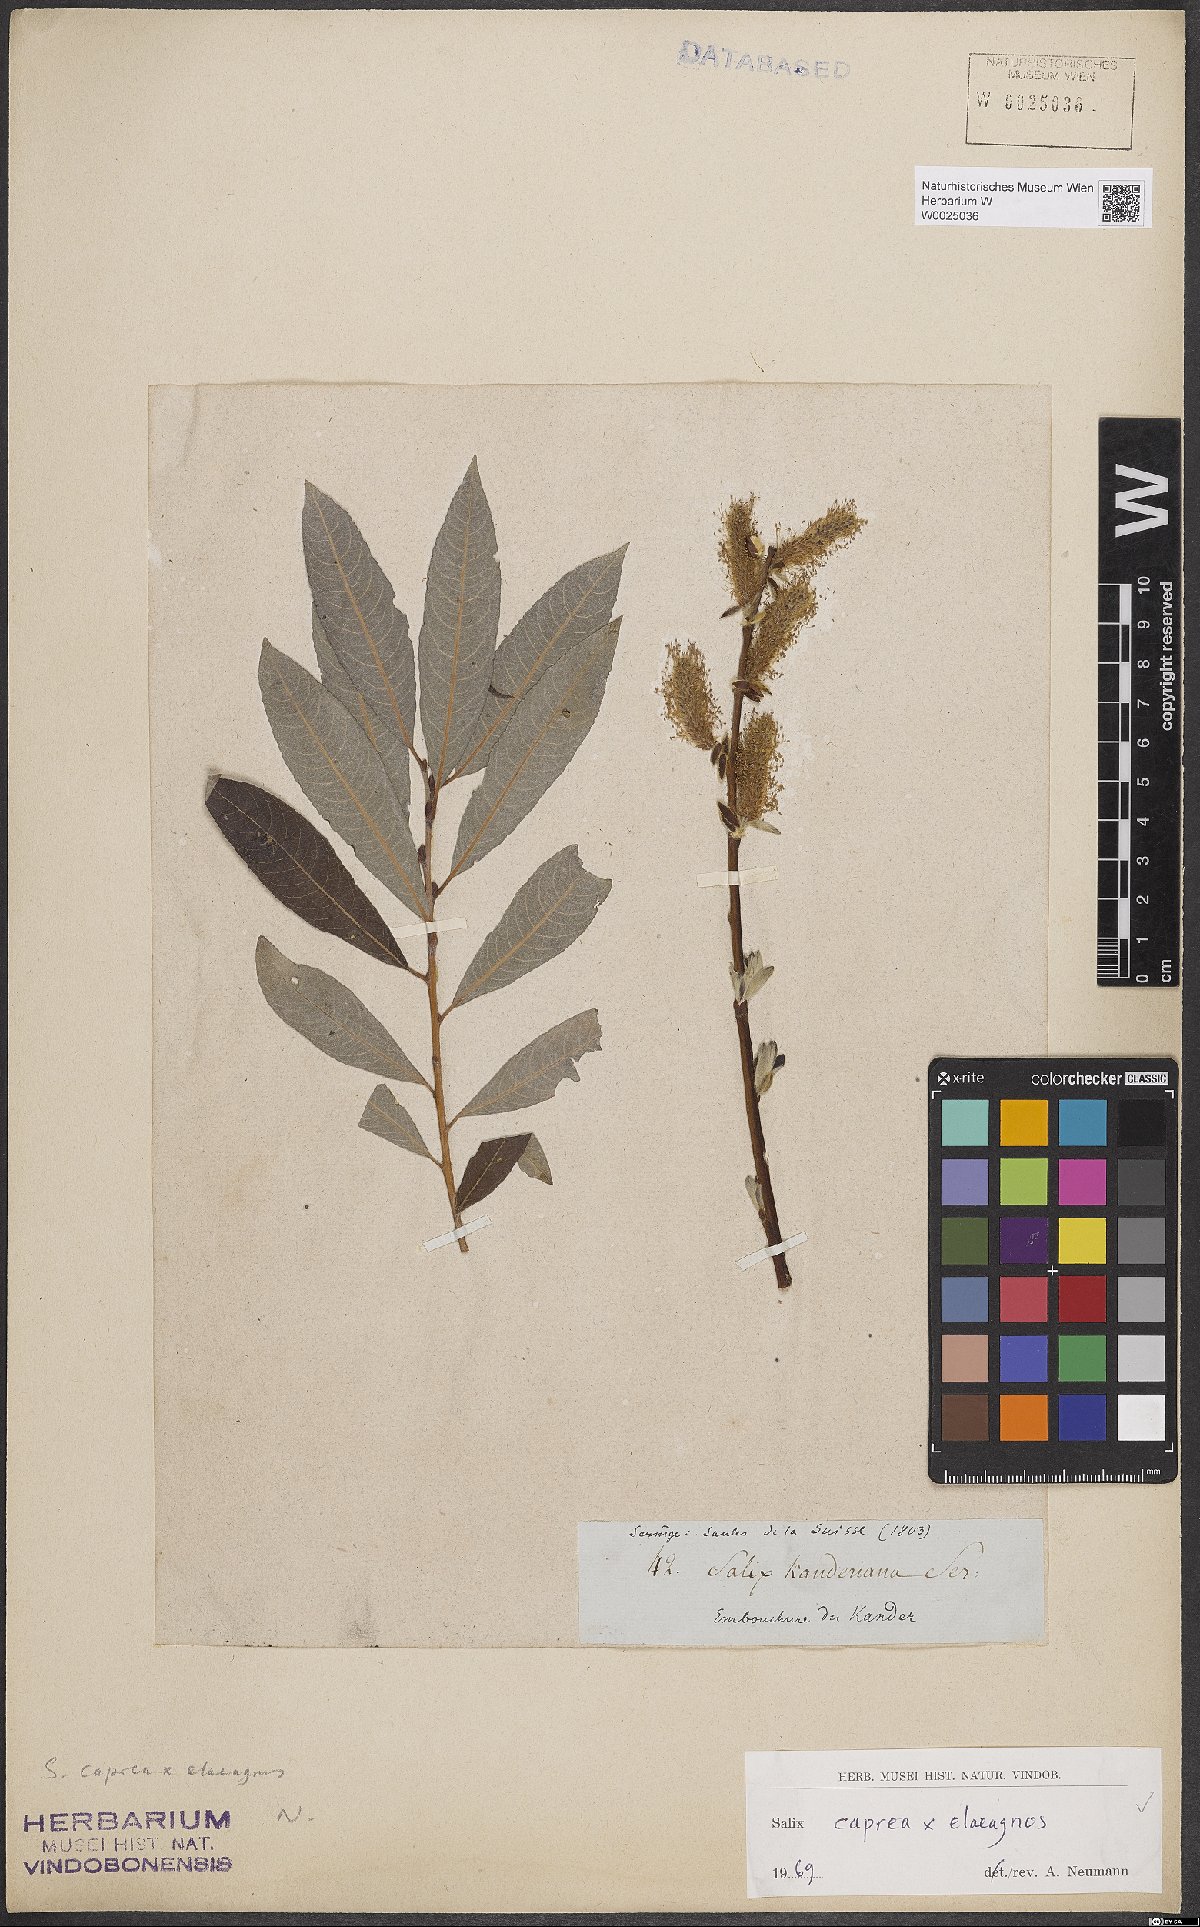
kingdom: Plantae
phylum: Tracheophyta
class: Magnoliopsida
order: Malpighiales
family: Salicaceae
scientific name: Salicaceae
